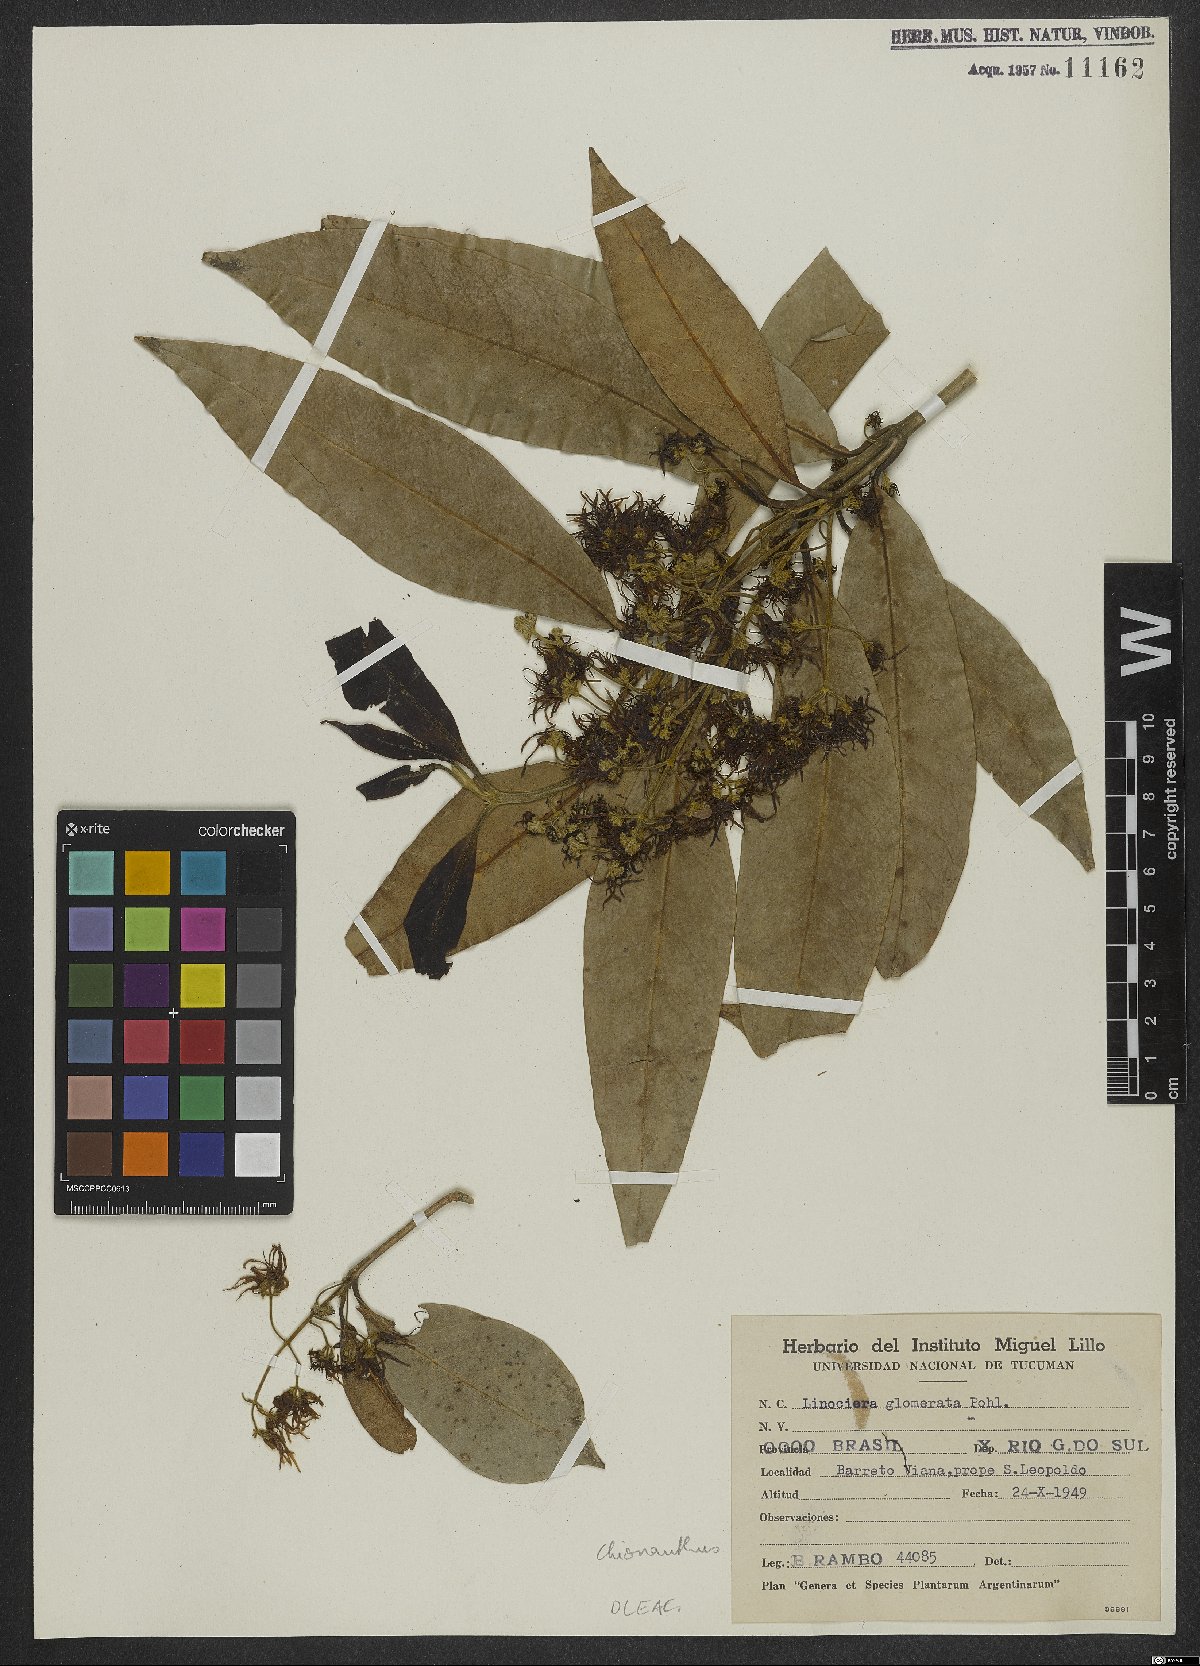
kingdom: Plantae
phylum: Tracheophyta
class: Magnoliopsida
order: Lamiales
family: Oleaceae
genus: Chionanthus
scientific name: Chionanthus
